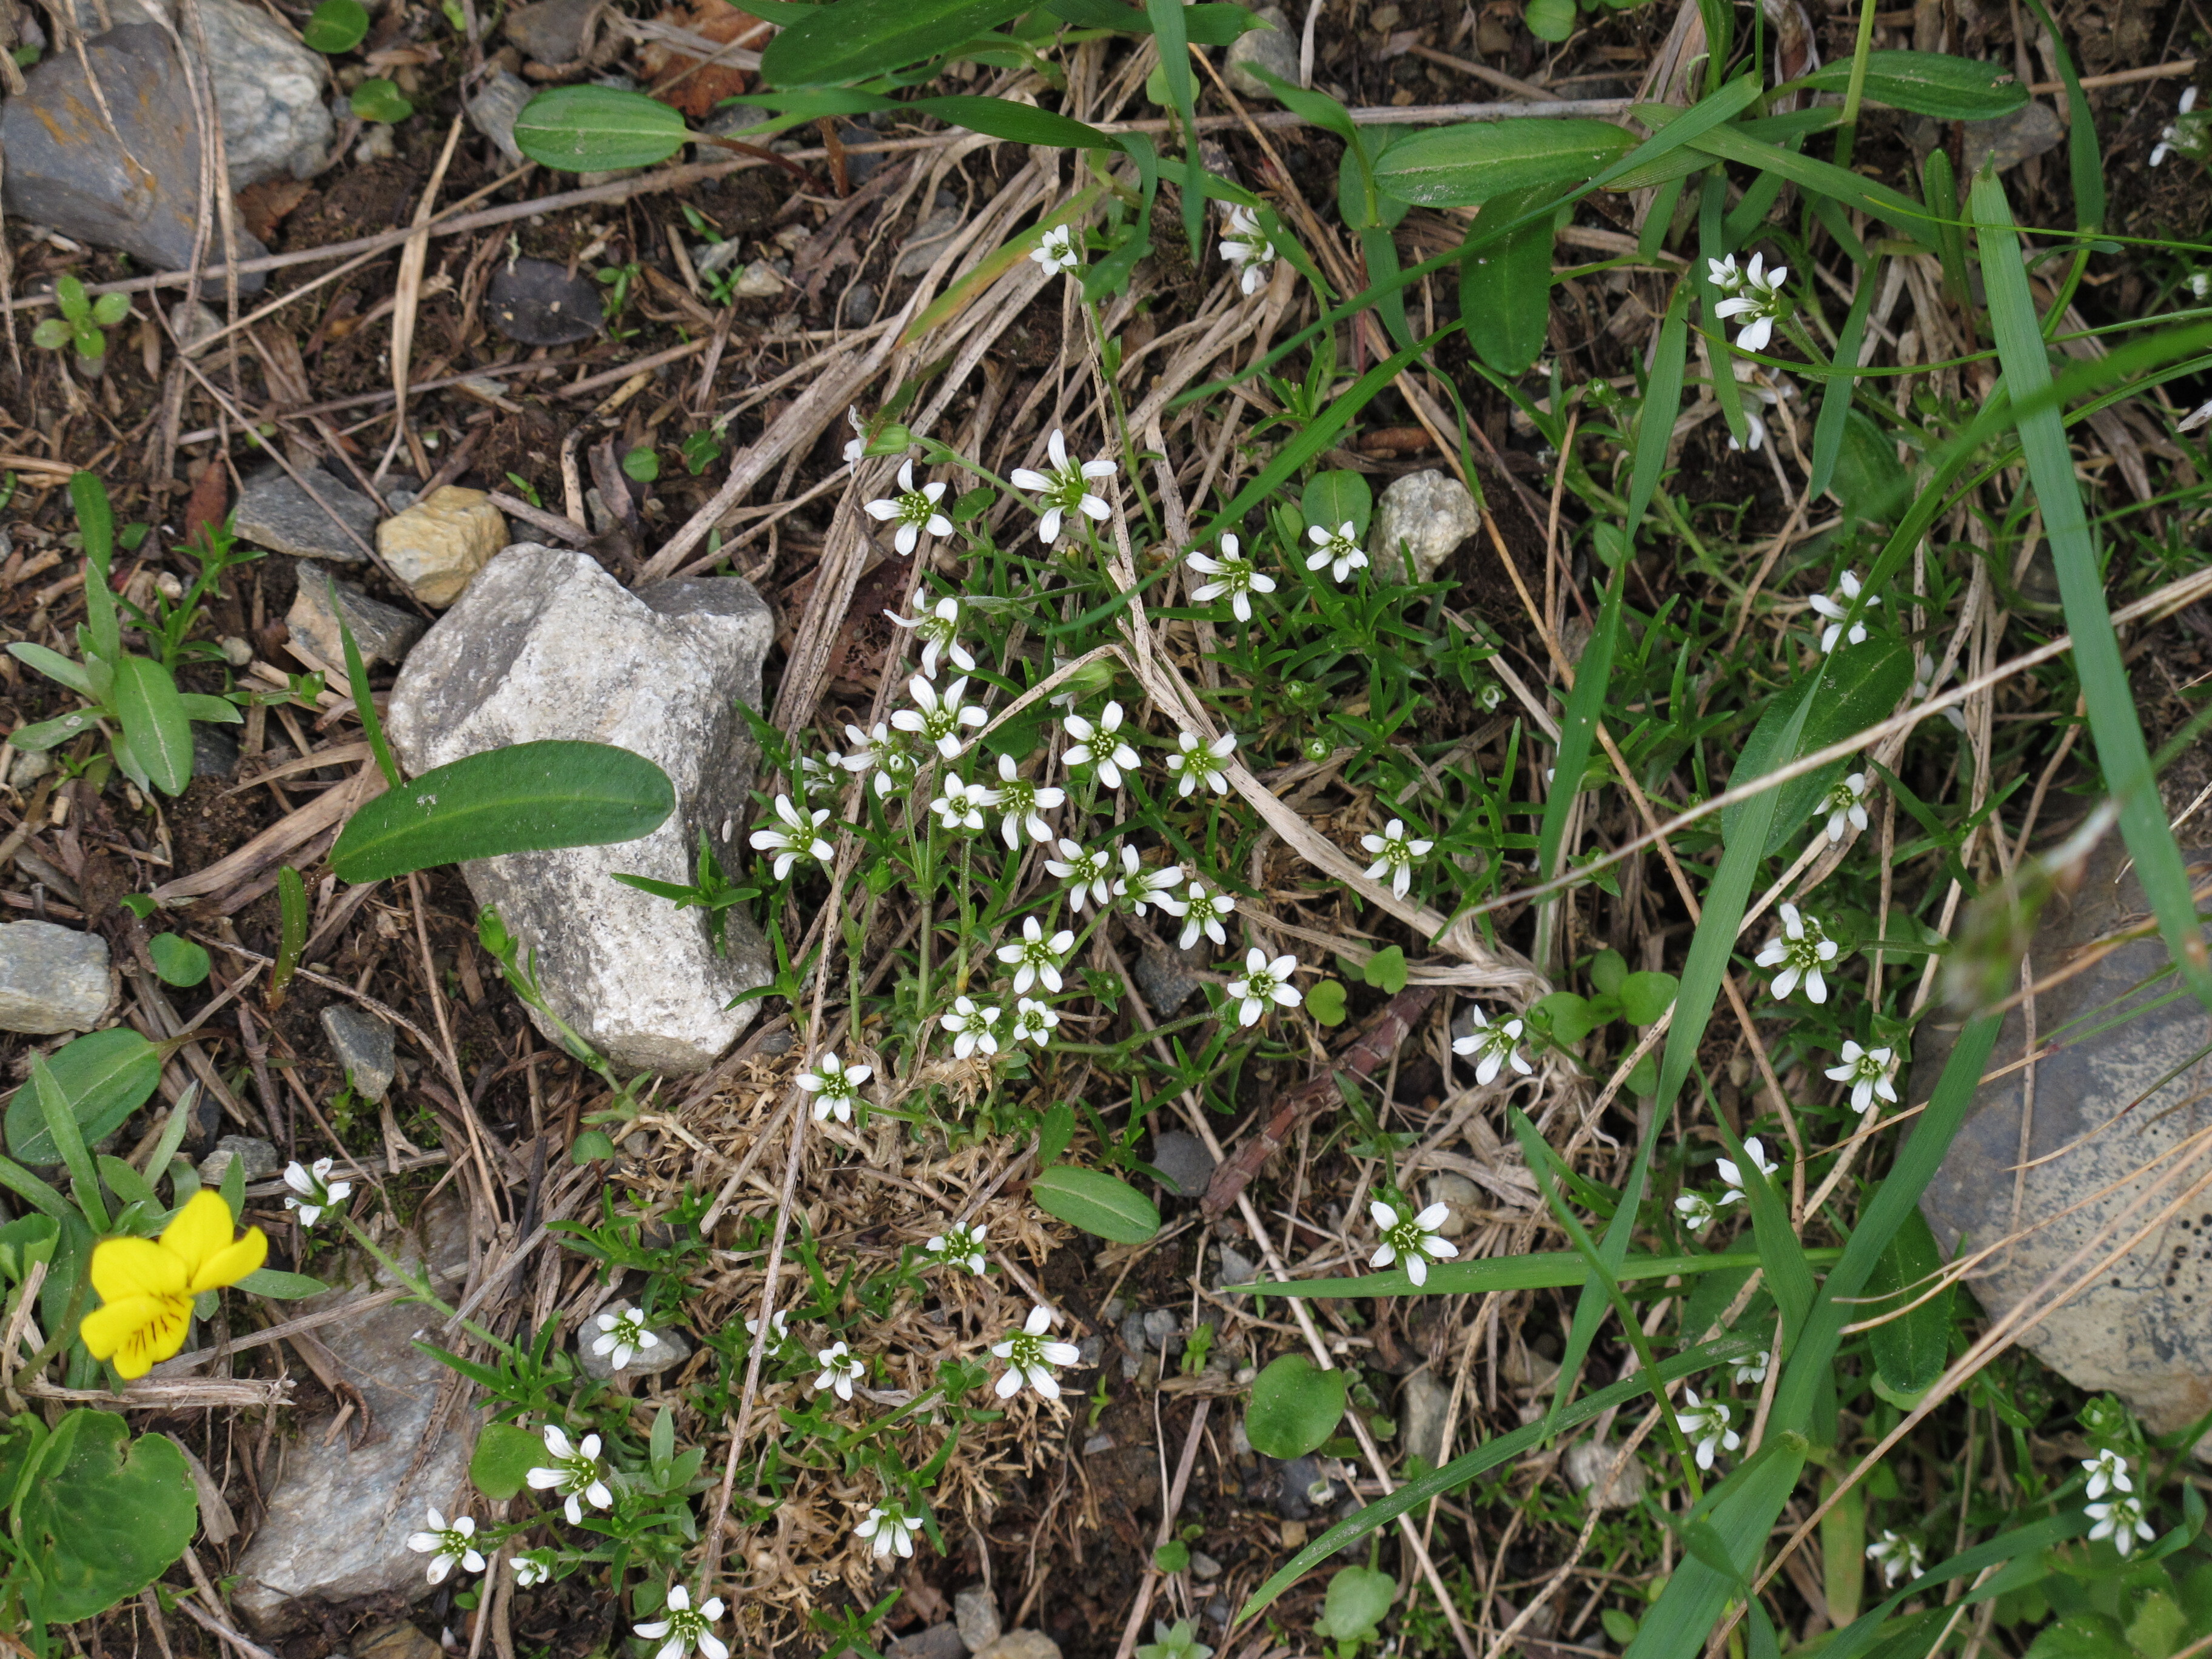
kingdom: Plantae
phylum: Tracheophyta
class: Magnoliopsida
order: Caryophyllales
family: Caryophyllaceae
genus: Cherleria
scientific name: Cherleria biflora
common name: Mountain sandwort
